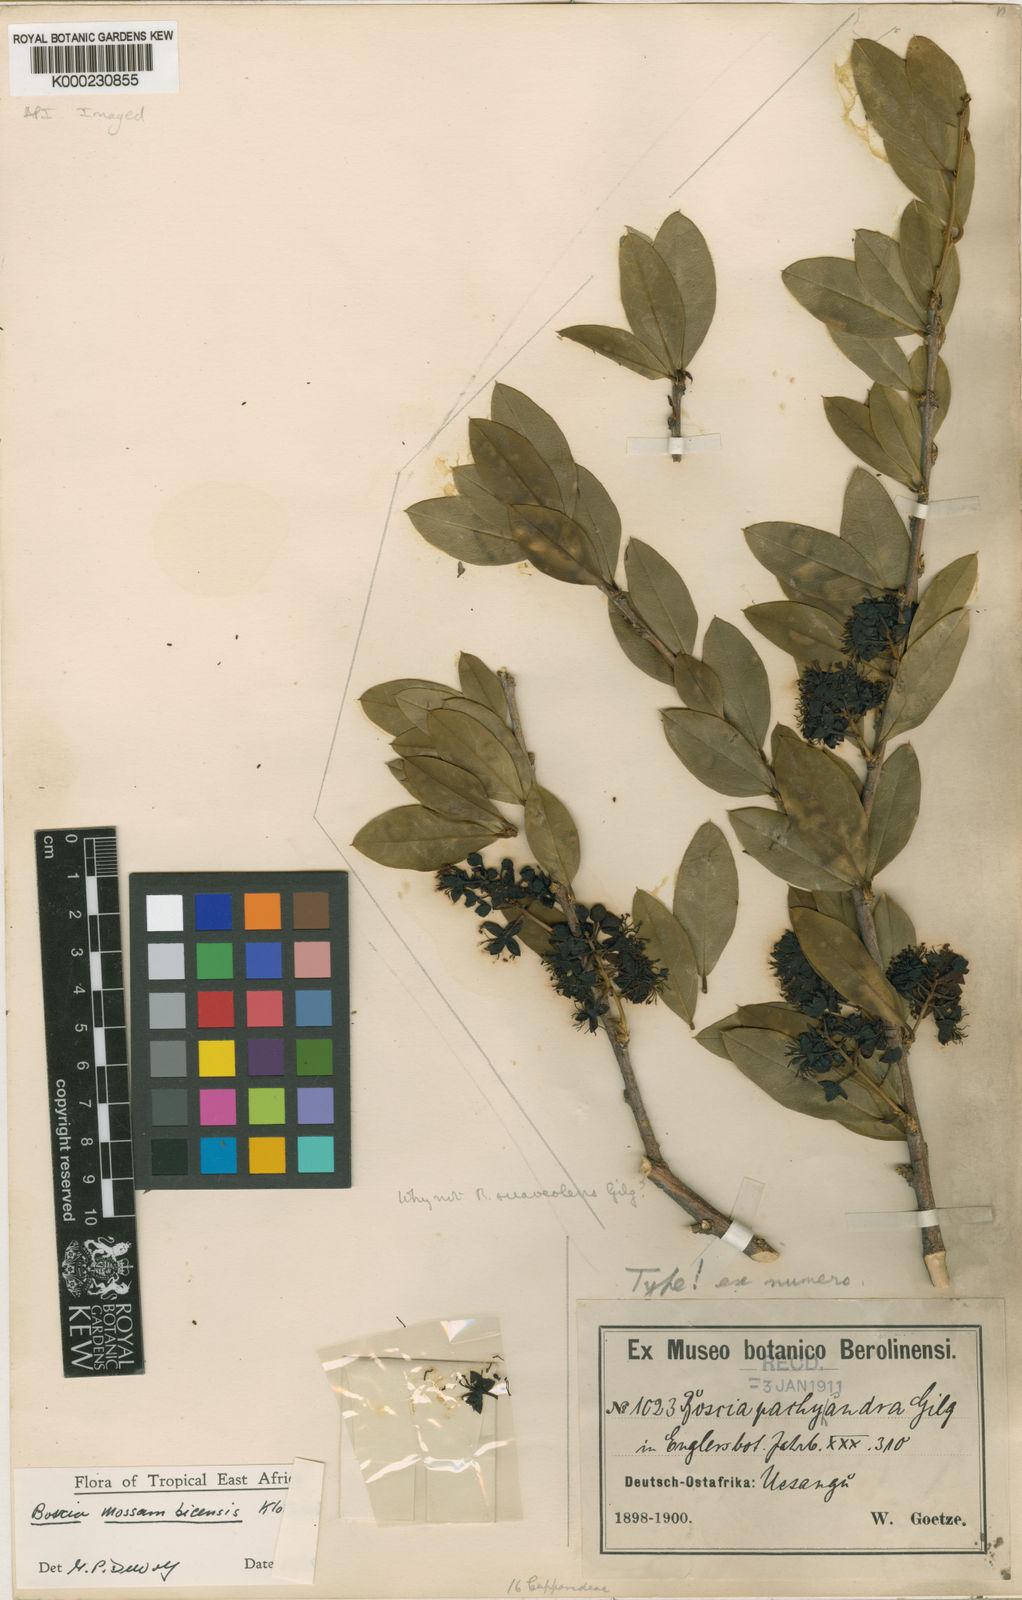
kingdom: Plantae
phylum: Tracheophyta
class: Magnoliopsida
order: Brassicales
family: Capparaceae
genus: Boscia
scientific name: Boscia mossambicensis
